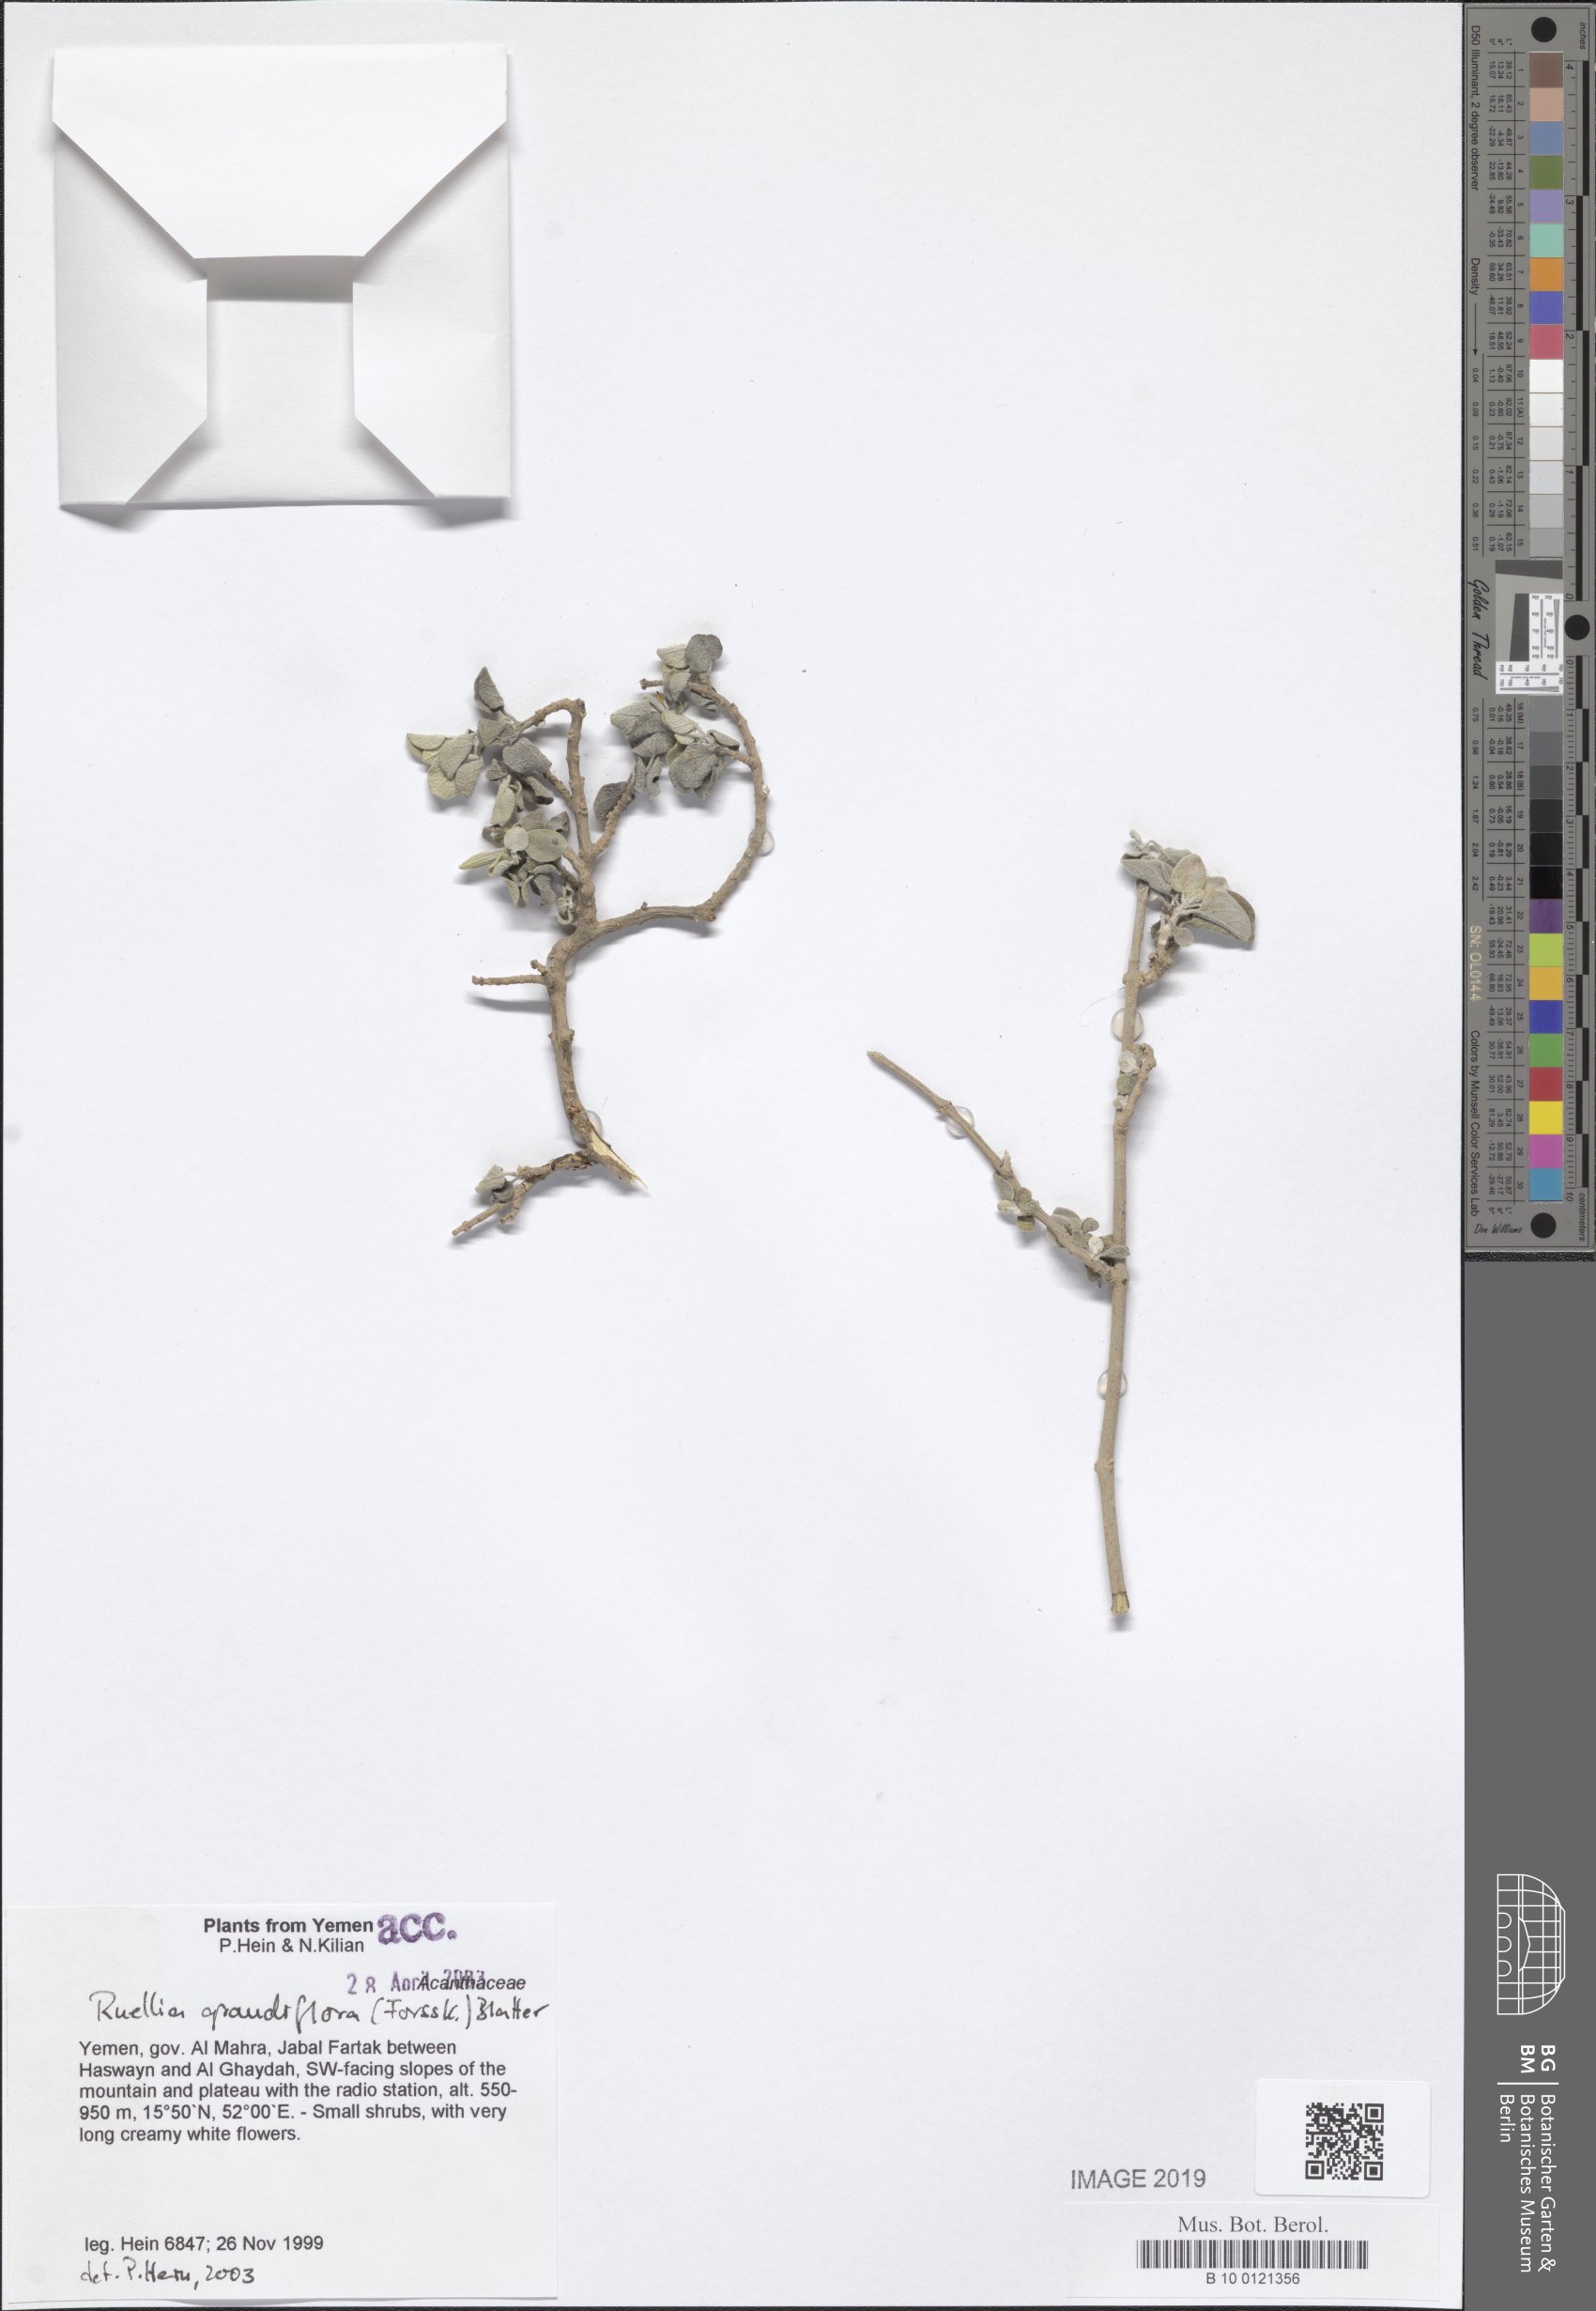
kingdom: Plantae
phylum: Tracheophyta
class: Magnoliopsida
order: Lamiales
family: Acanthaceae
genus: Ruellia
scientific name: Ruellia grandiflora
